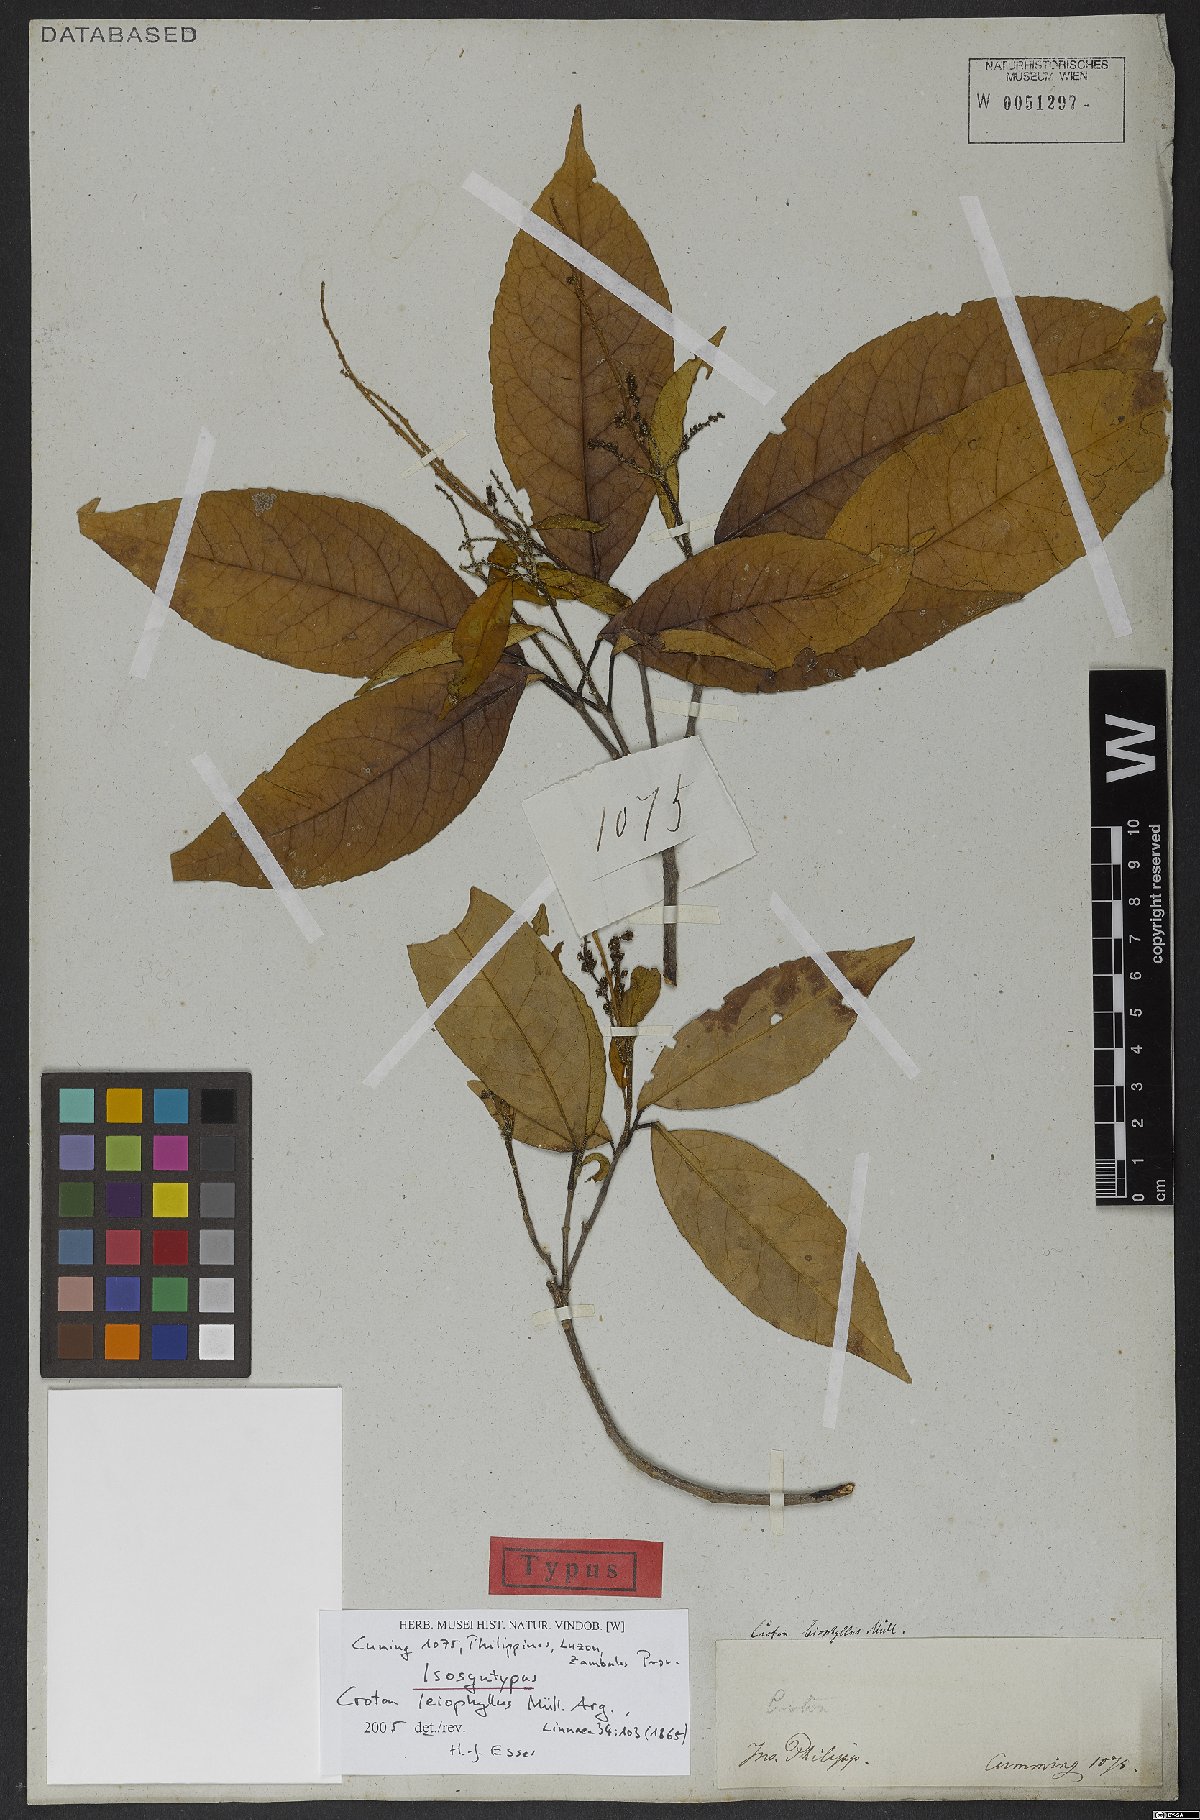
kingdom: Plantae
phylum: Tracheophyta
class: Magnoliopsida
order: Malpighiales
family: Euphorbiaceae
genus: Croton
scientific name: Croton leiophyllus
